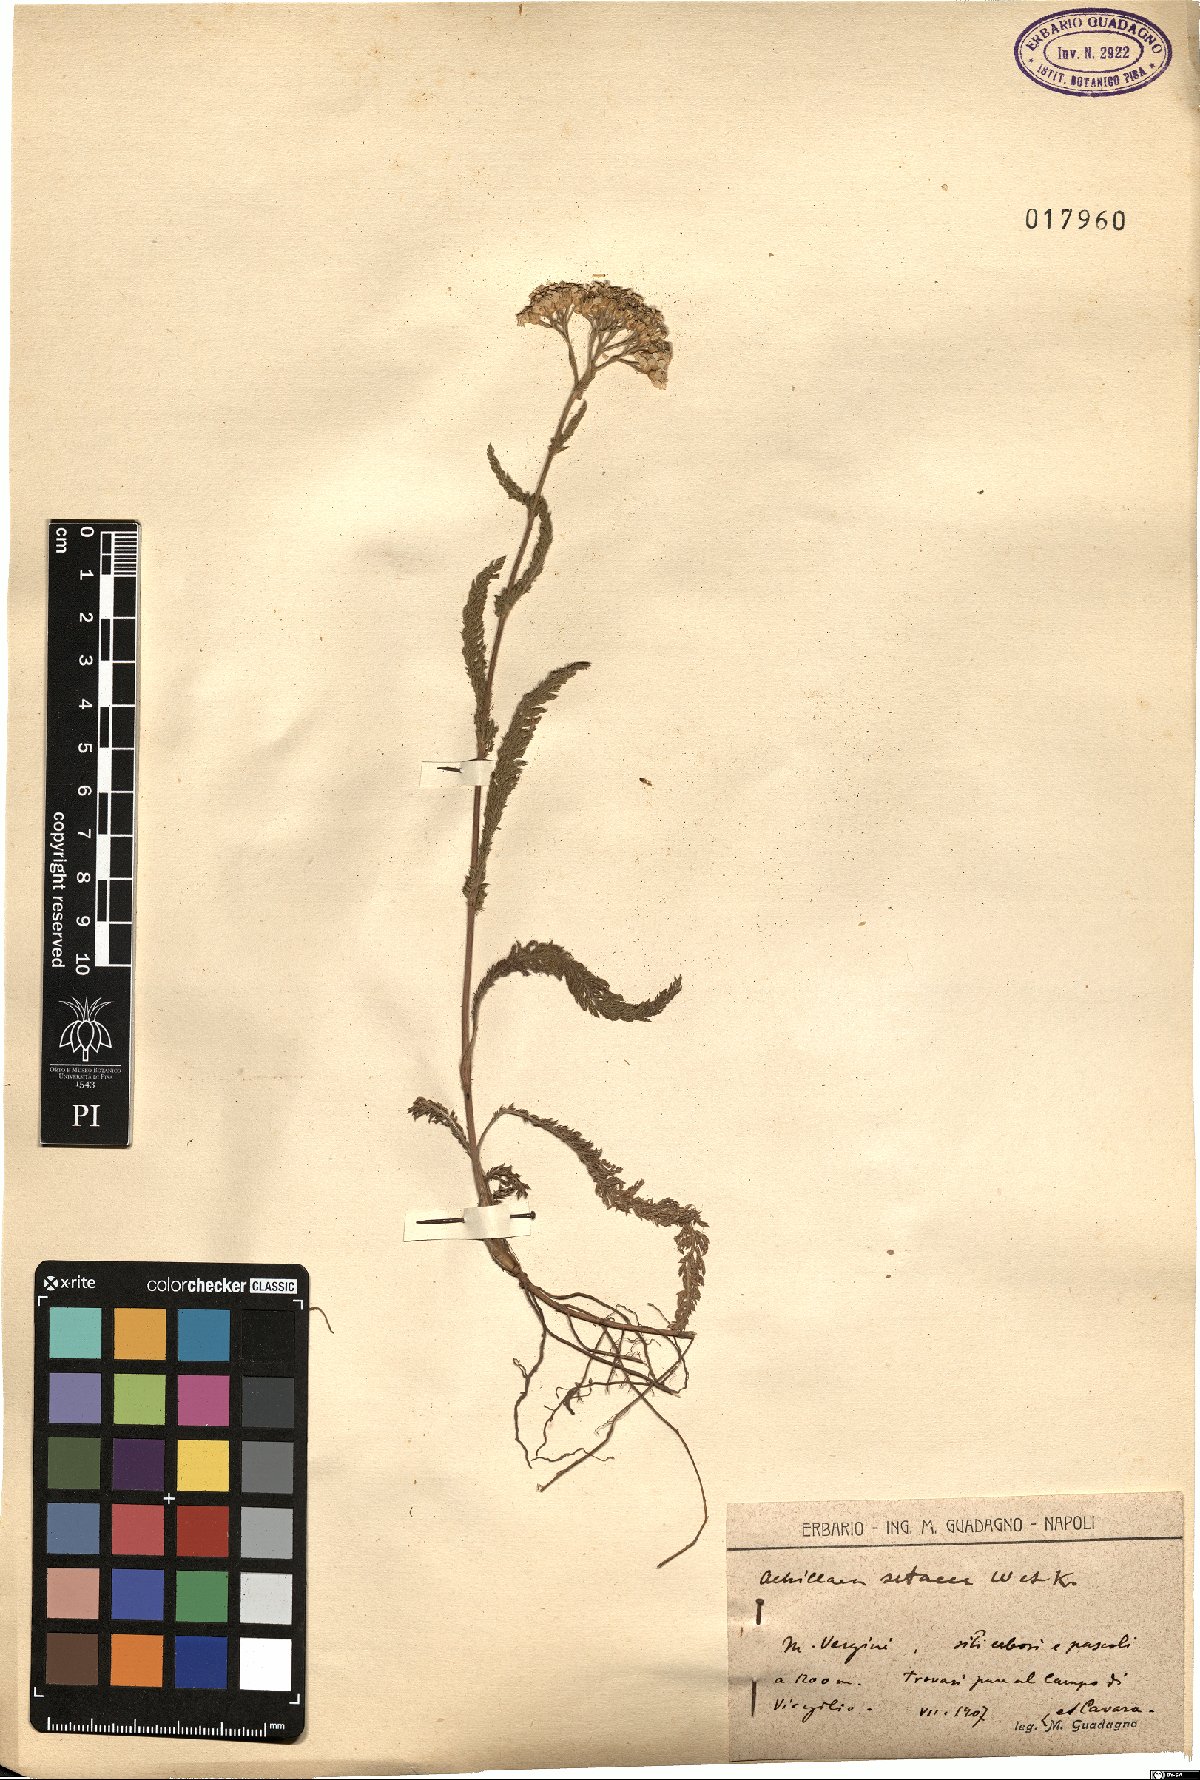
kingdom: Plantae
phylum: Tracheophyta
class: Magnoliopsida
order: Asterales
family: Asteraceae
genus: Achillea
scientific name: Achillea setacea
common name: Bristly yarrow
